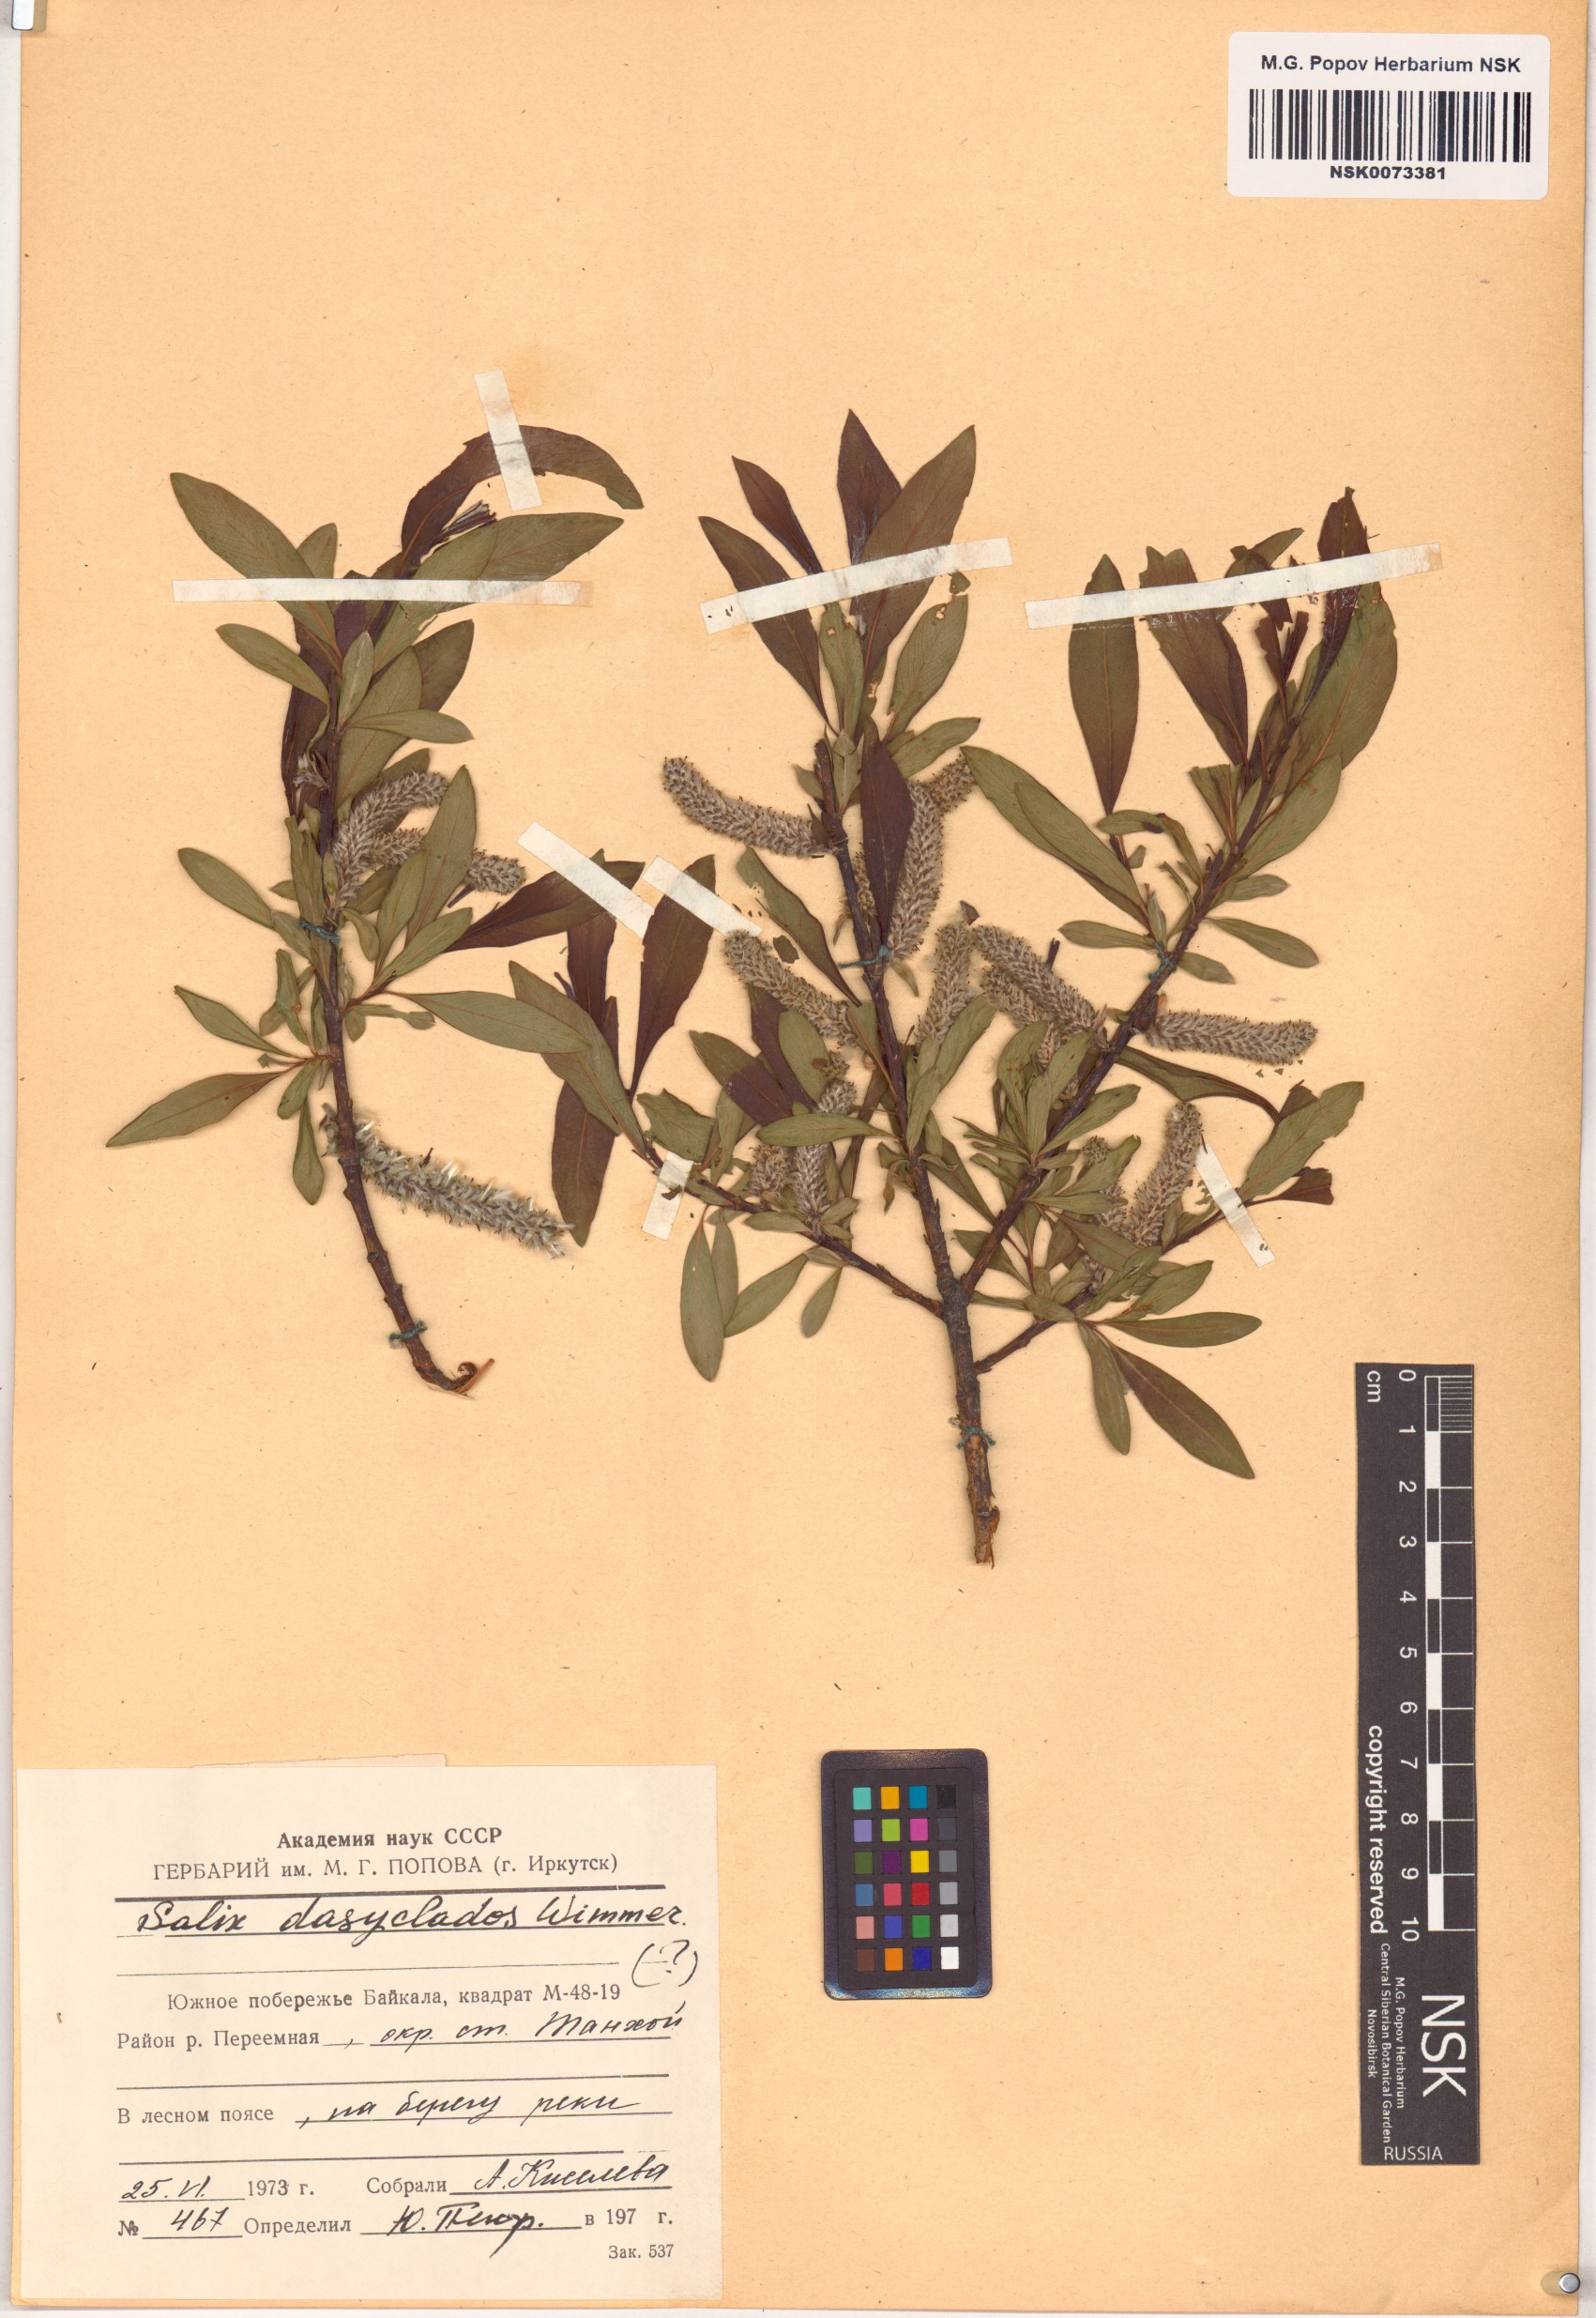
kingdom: Plantae
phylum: Tracheophyta
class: Magnoliopsida
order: Malpighiales
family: Salicaceae
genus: Salix
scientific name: Salix gmelinii
